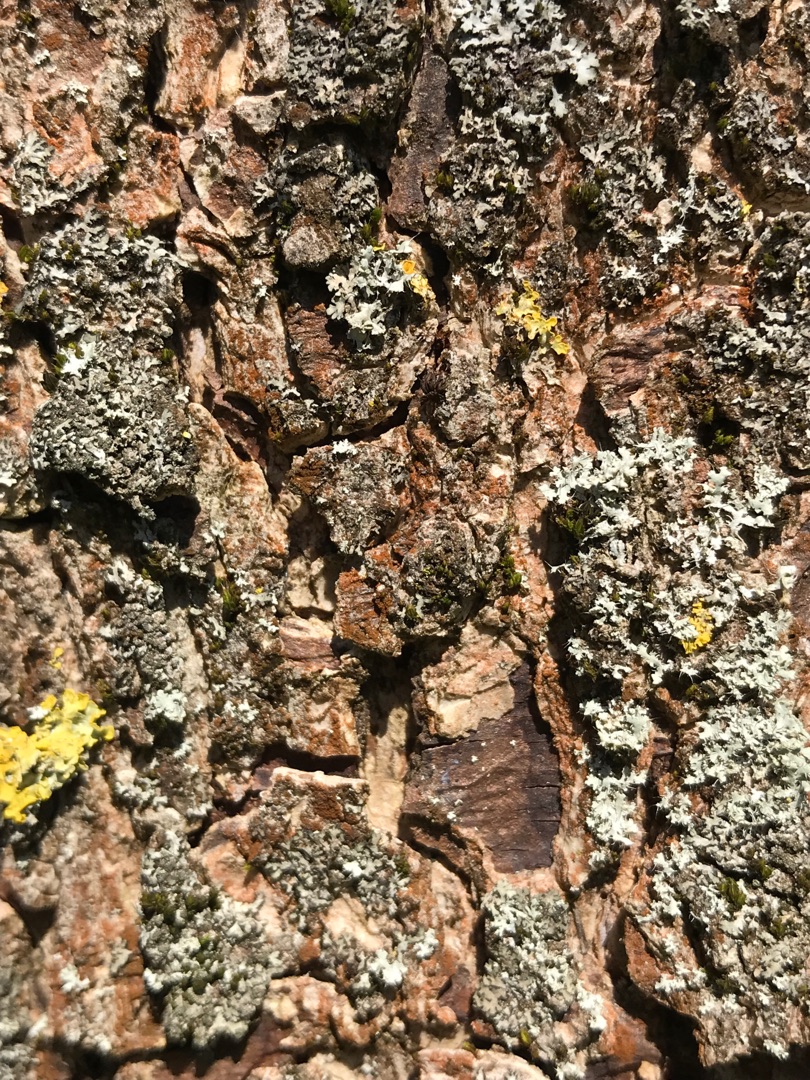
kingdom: Fungi
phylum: Ascomycota
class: Lecanoromycetes
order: Caliciales
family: Physciaceae
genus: Physcia
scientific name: Physcia
